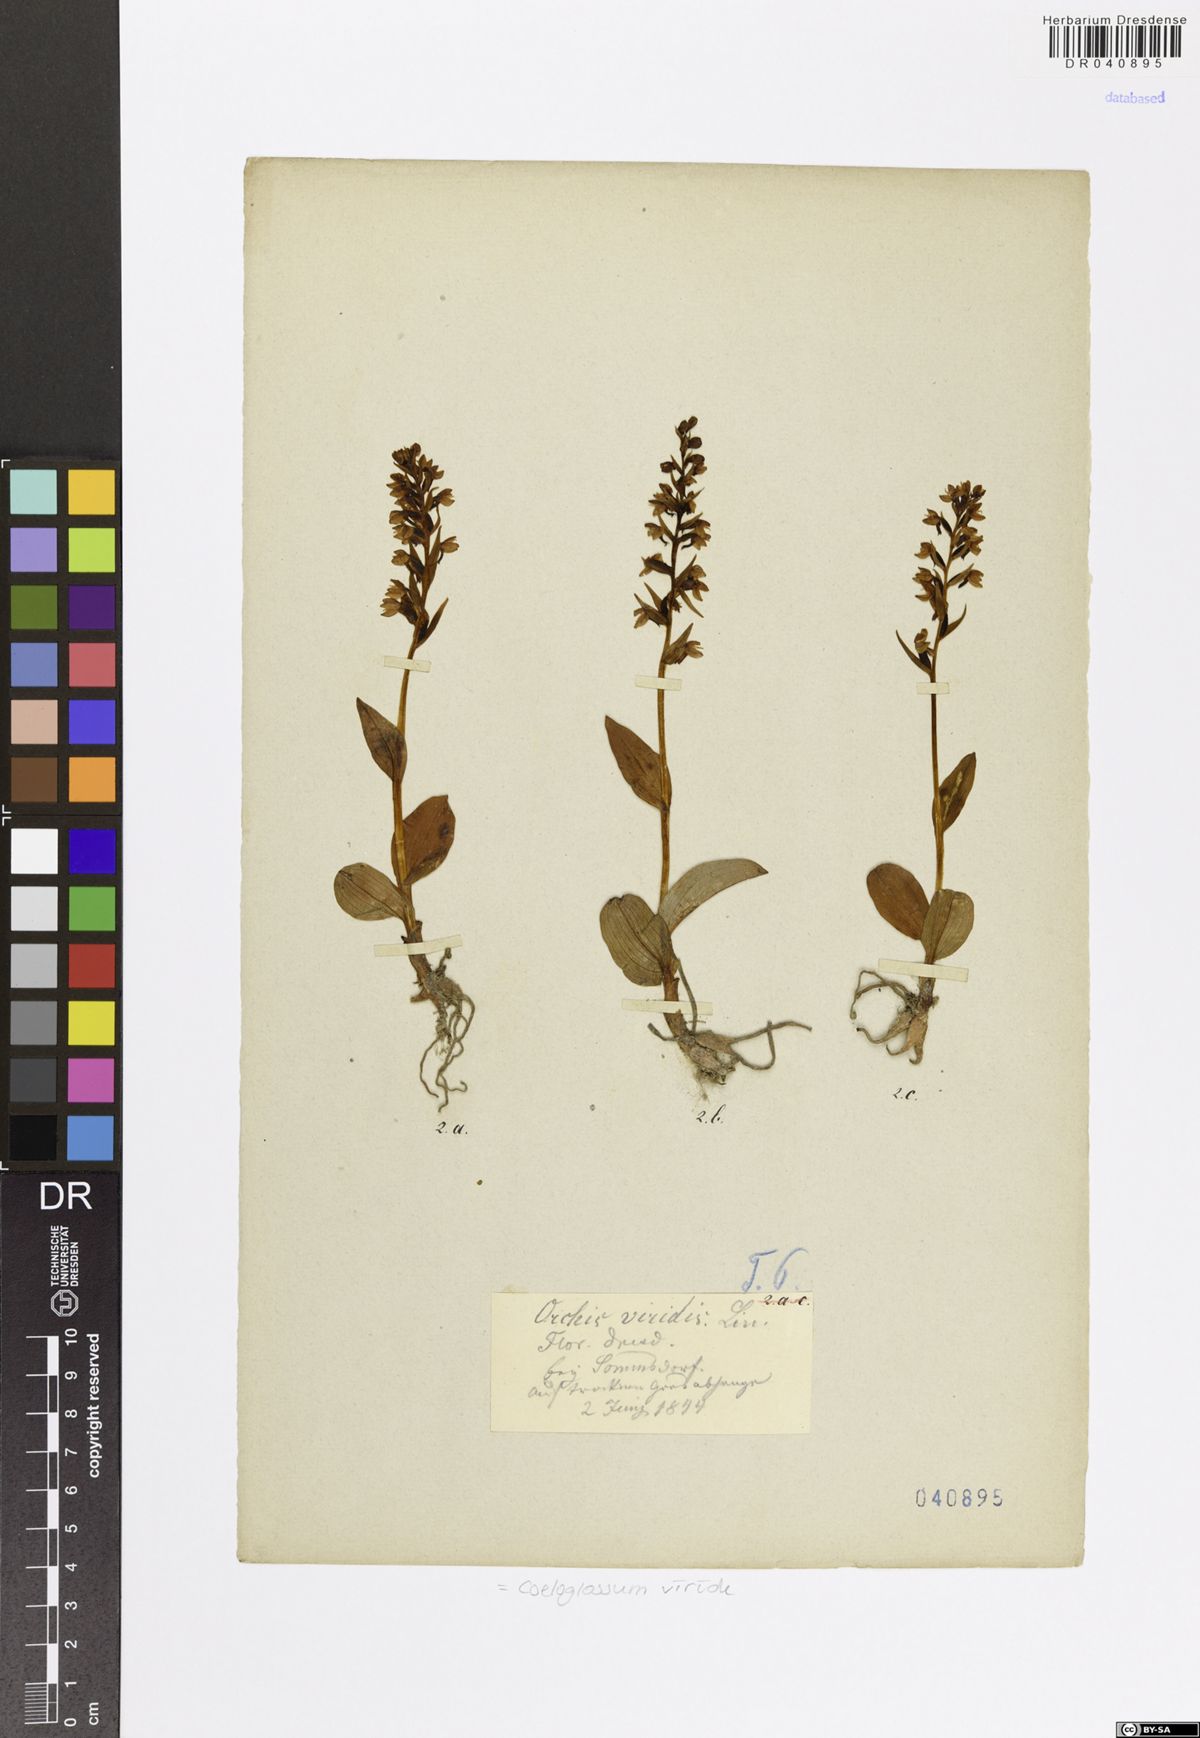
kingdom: Plantae
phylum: Tracheophyta
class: Liliopsida
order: Asparagales
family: Orchidaceae
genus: Dactylorhiza
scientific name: Dactylorhiza viridis
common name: Longbract frog orchid
